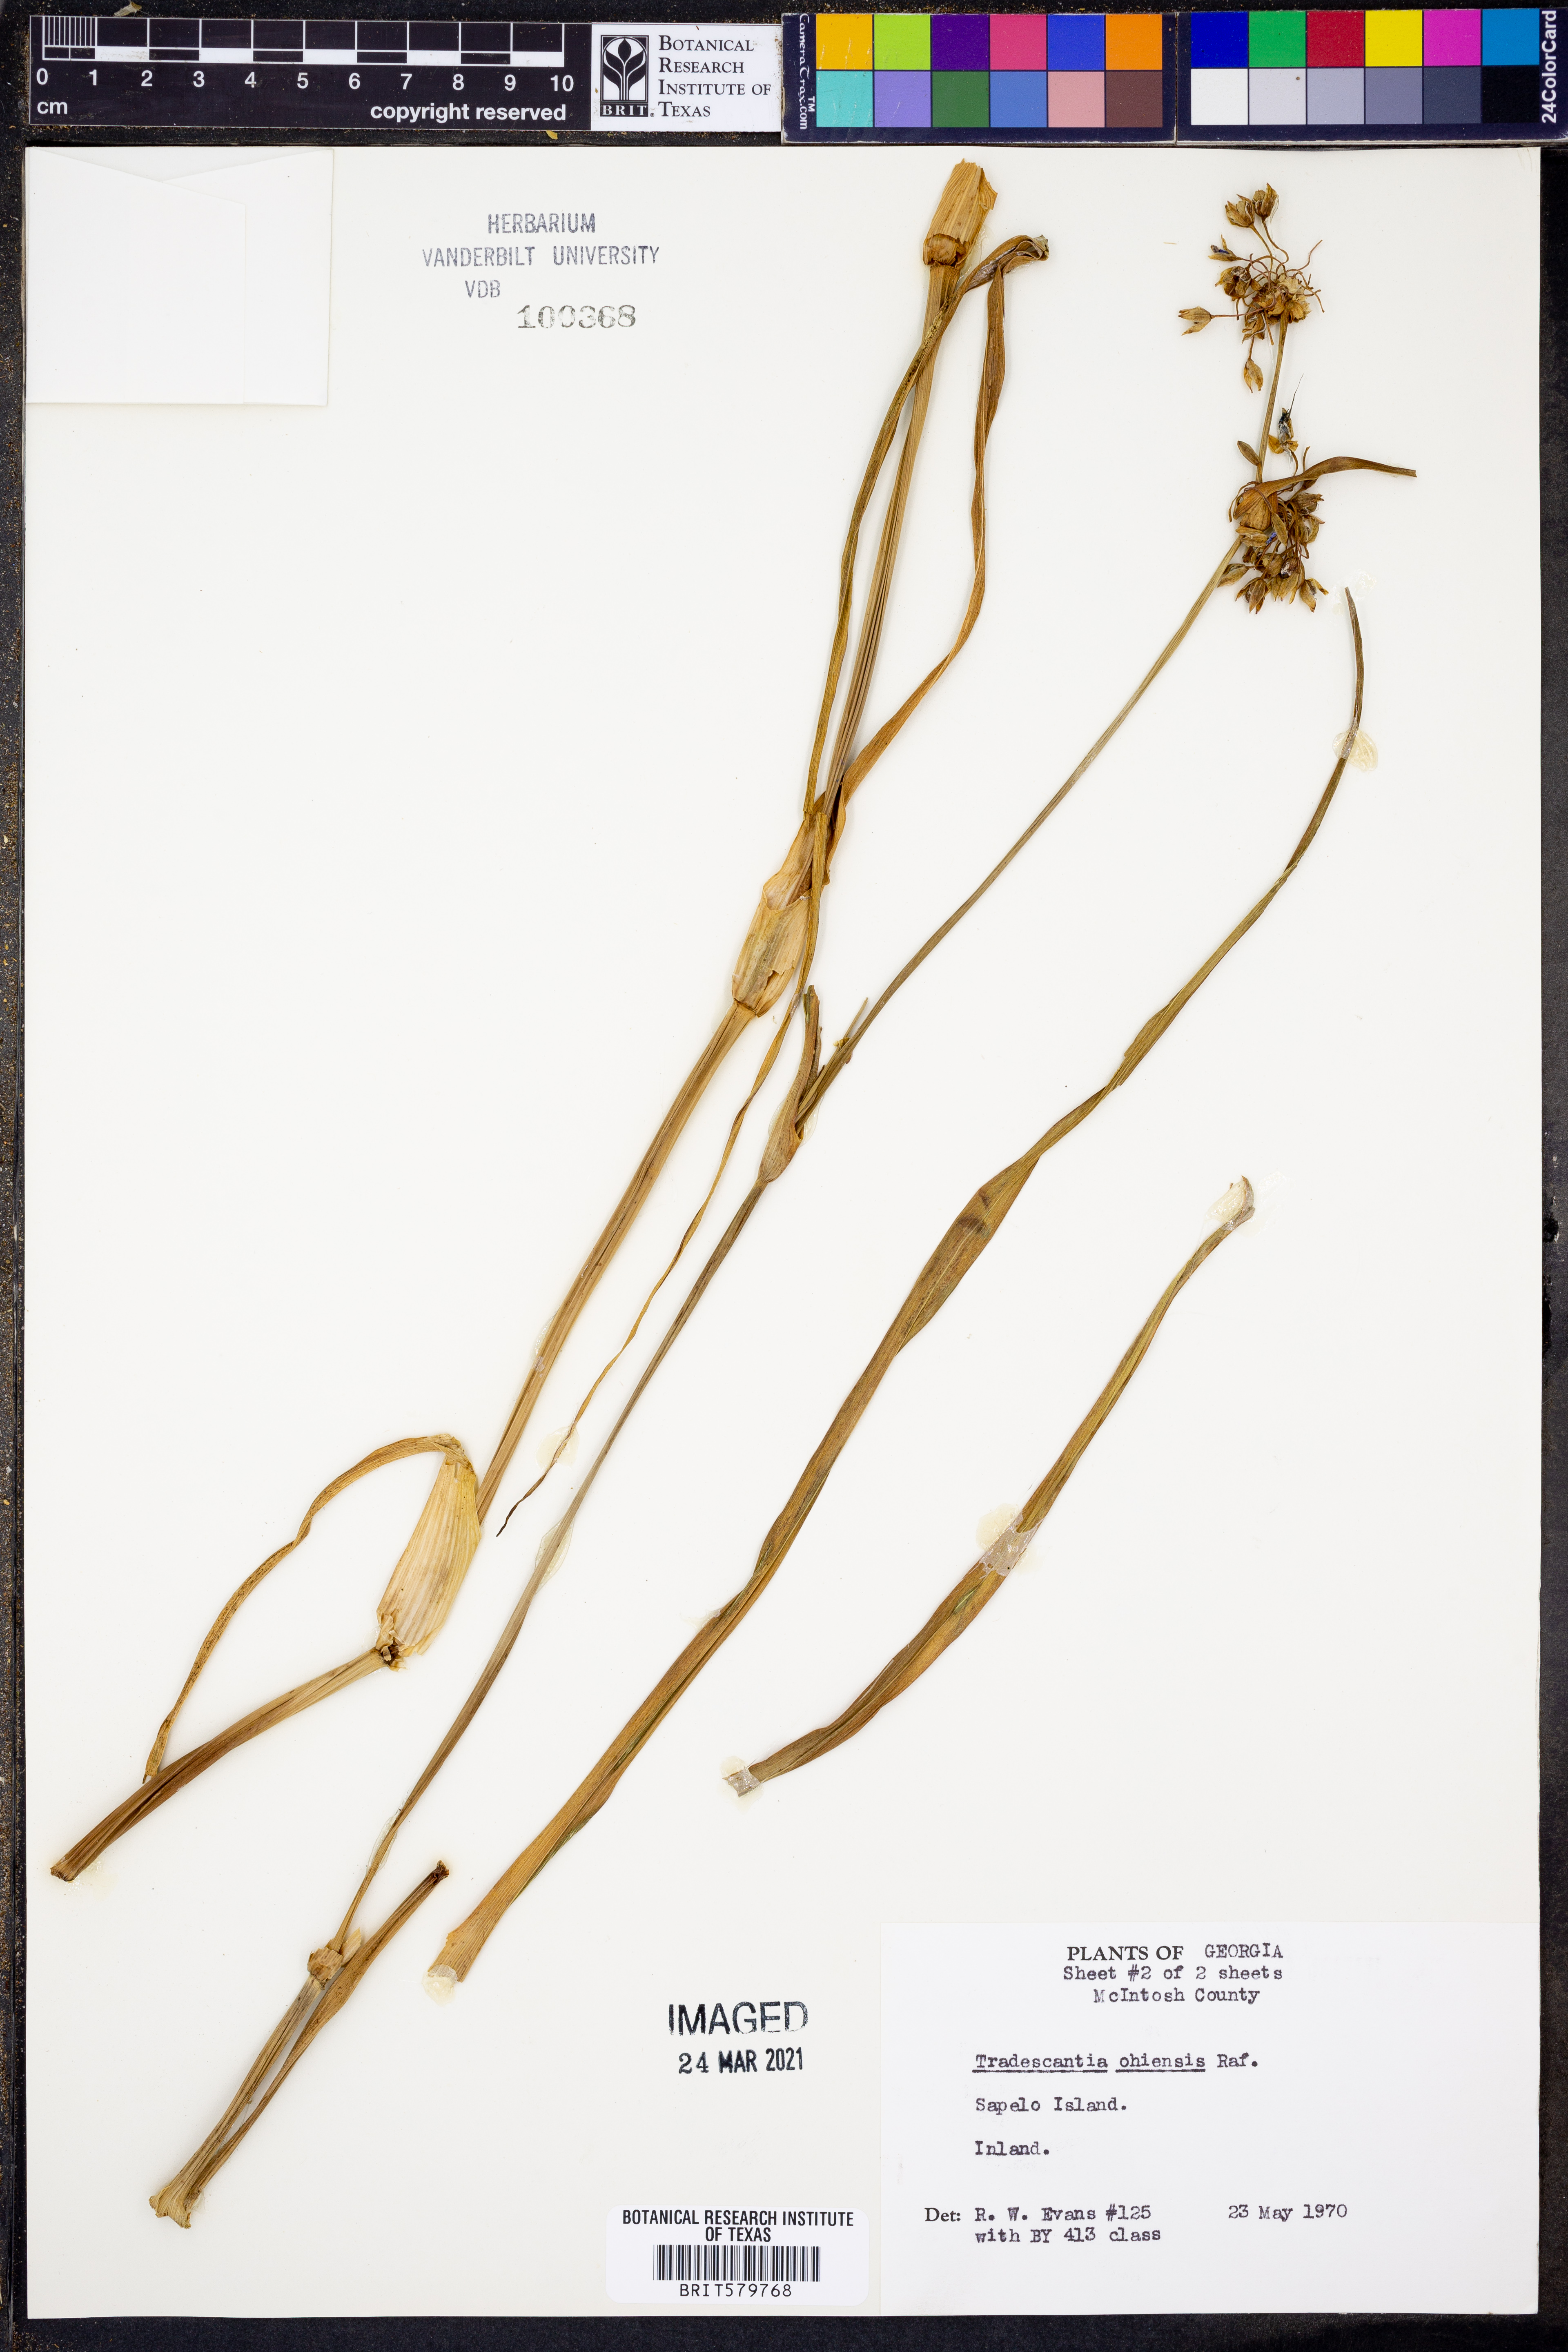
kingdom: Plantae
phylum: Tracheophyta
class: Liliopsida
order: Commelinales
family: Commelinaceae
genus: Tradescantia
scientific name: Tradescantia ohiensis
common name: Ohio spiderwort
